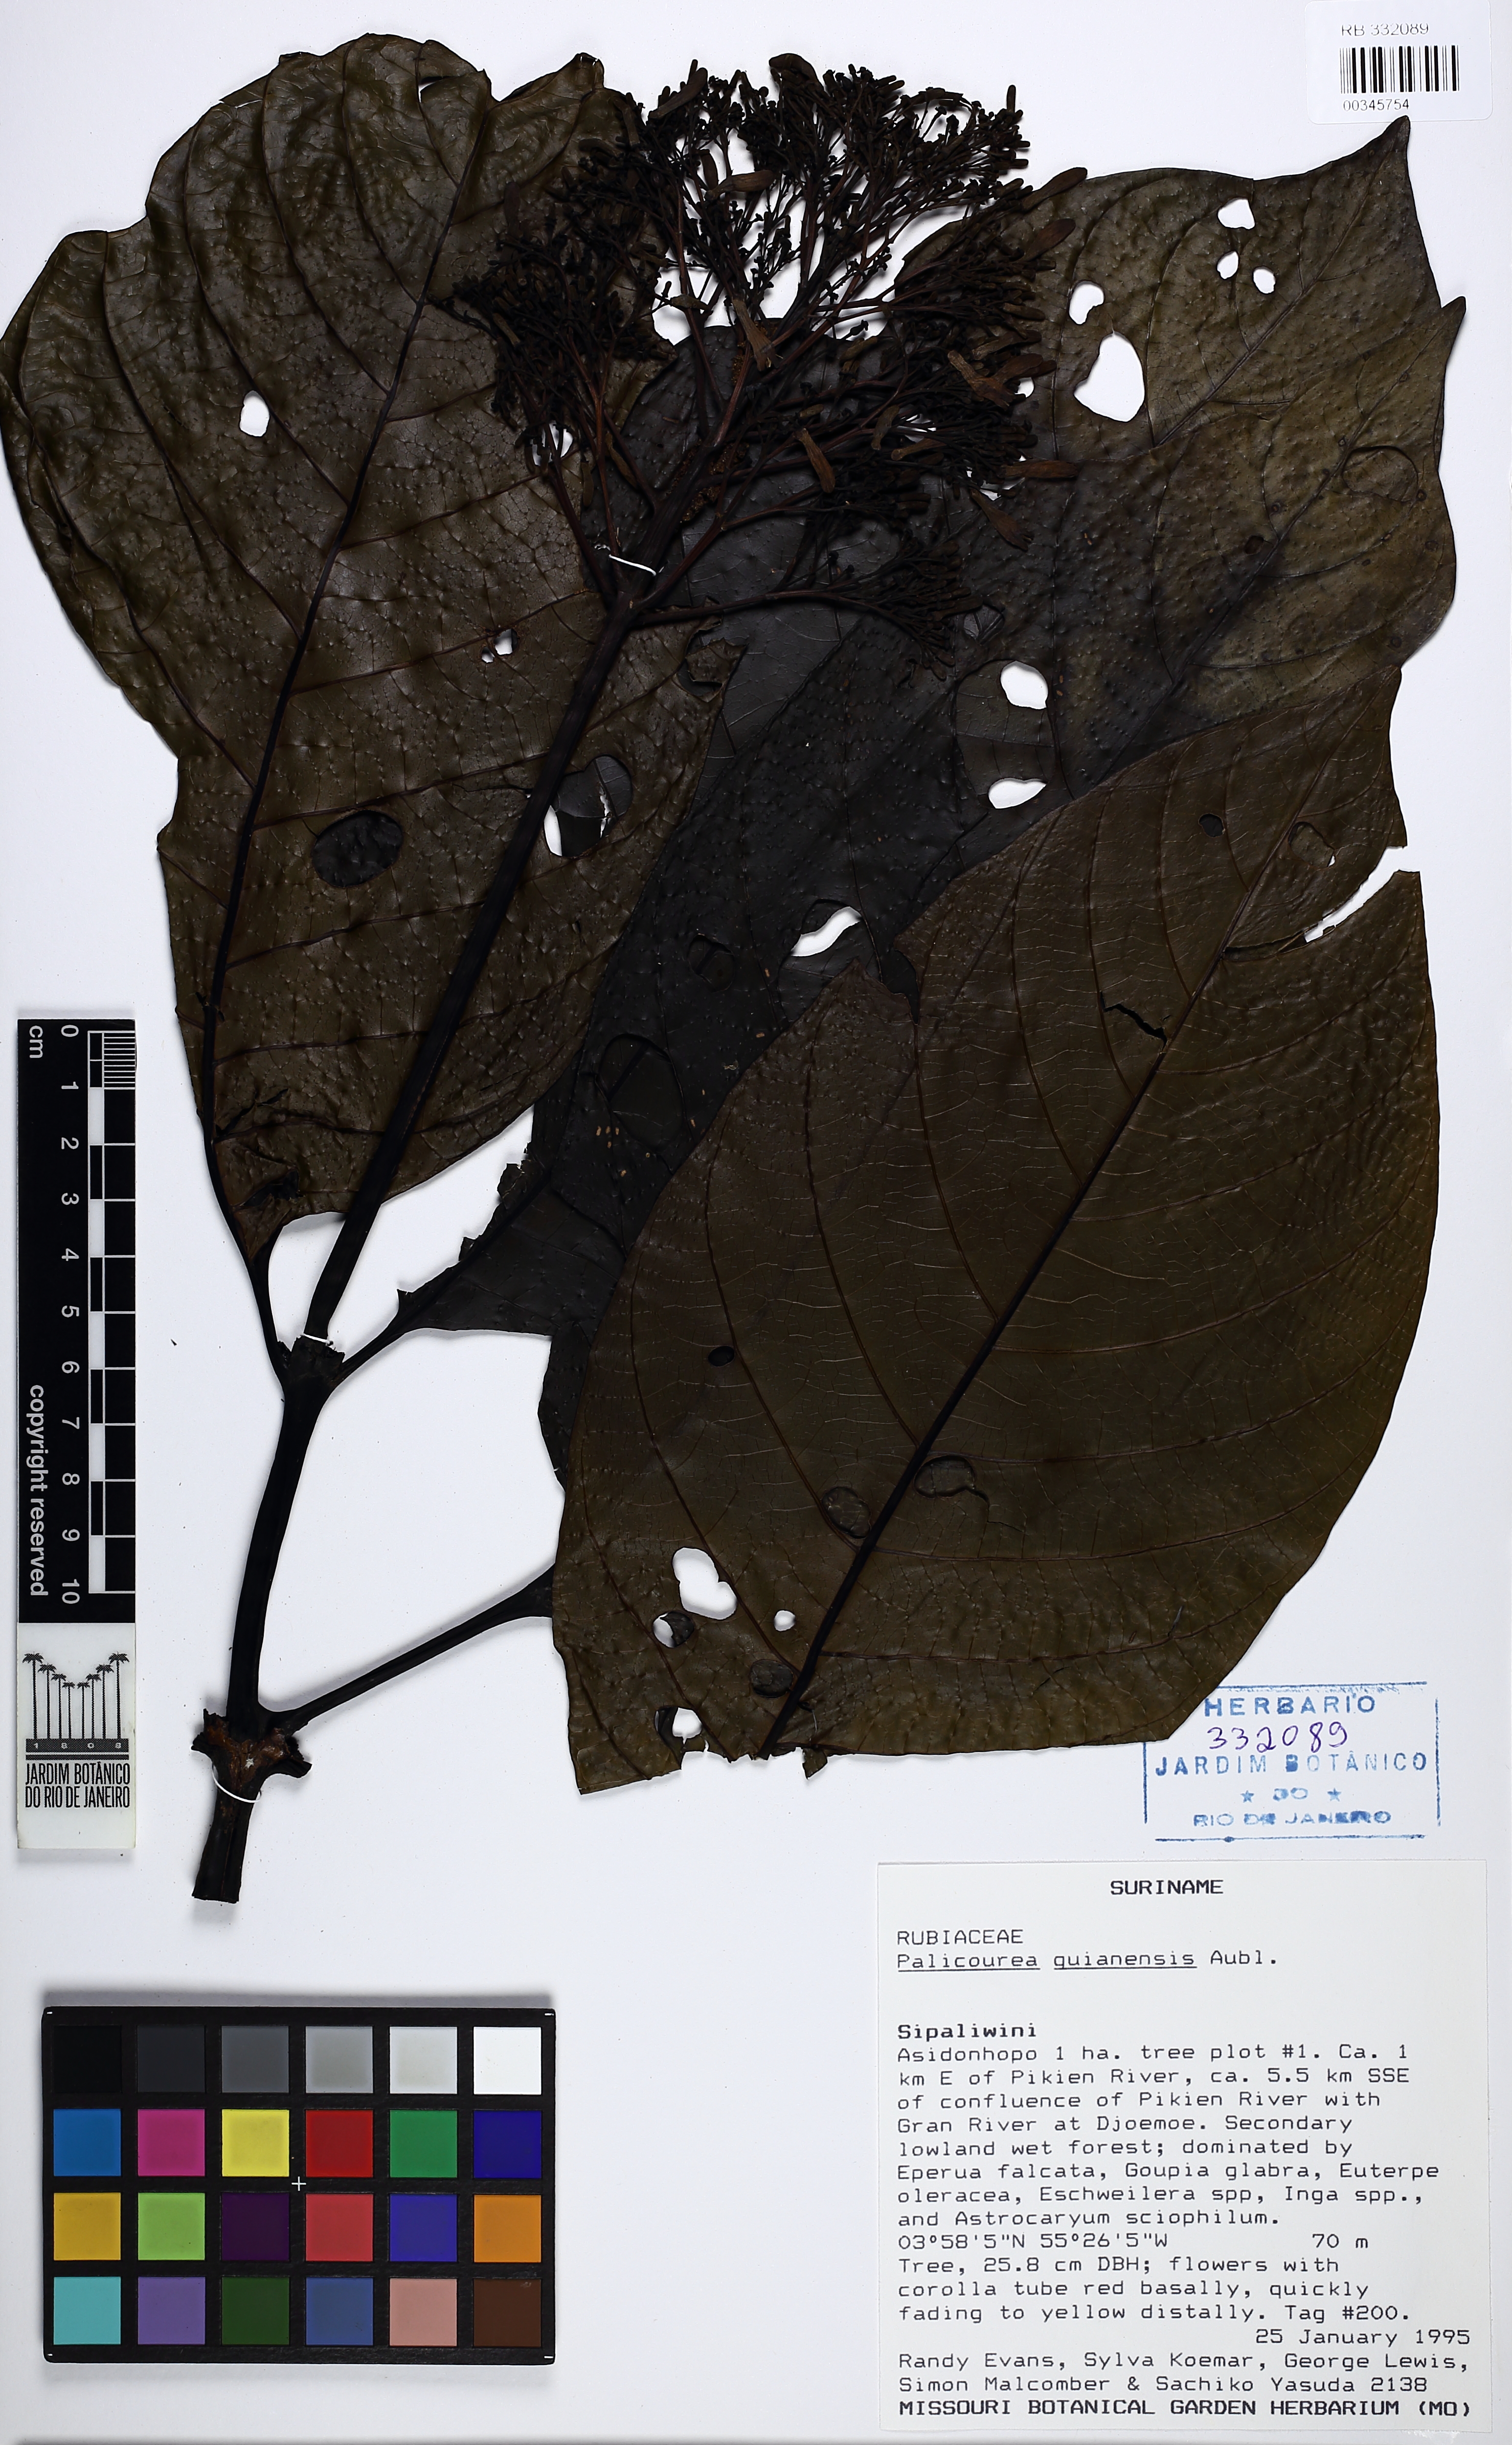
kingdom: Plantae
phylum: Tracheophyta
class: Magnoliopsida
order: Gentianales
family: Rubiaceae
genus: Palicourea
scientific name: Palicourea guianensis
